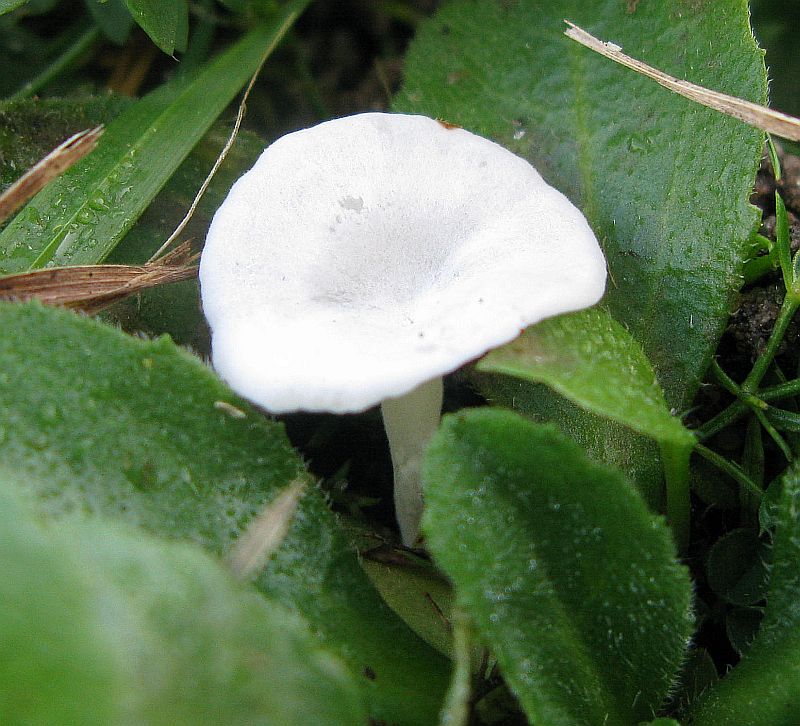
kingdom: Fungi
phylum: Basidiomycota
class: Agaricomycetes
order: Agaricales
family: Entolomataceae
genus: Clitopilus
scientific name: Clitopilus scyphoides
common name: spinkel melhat
